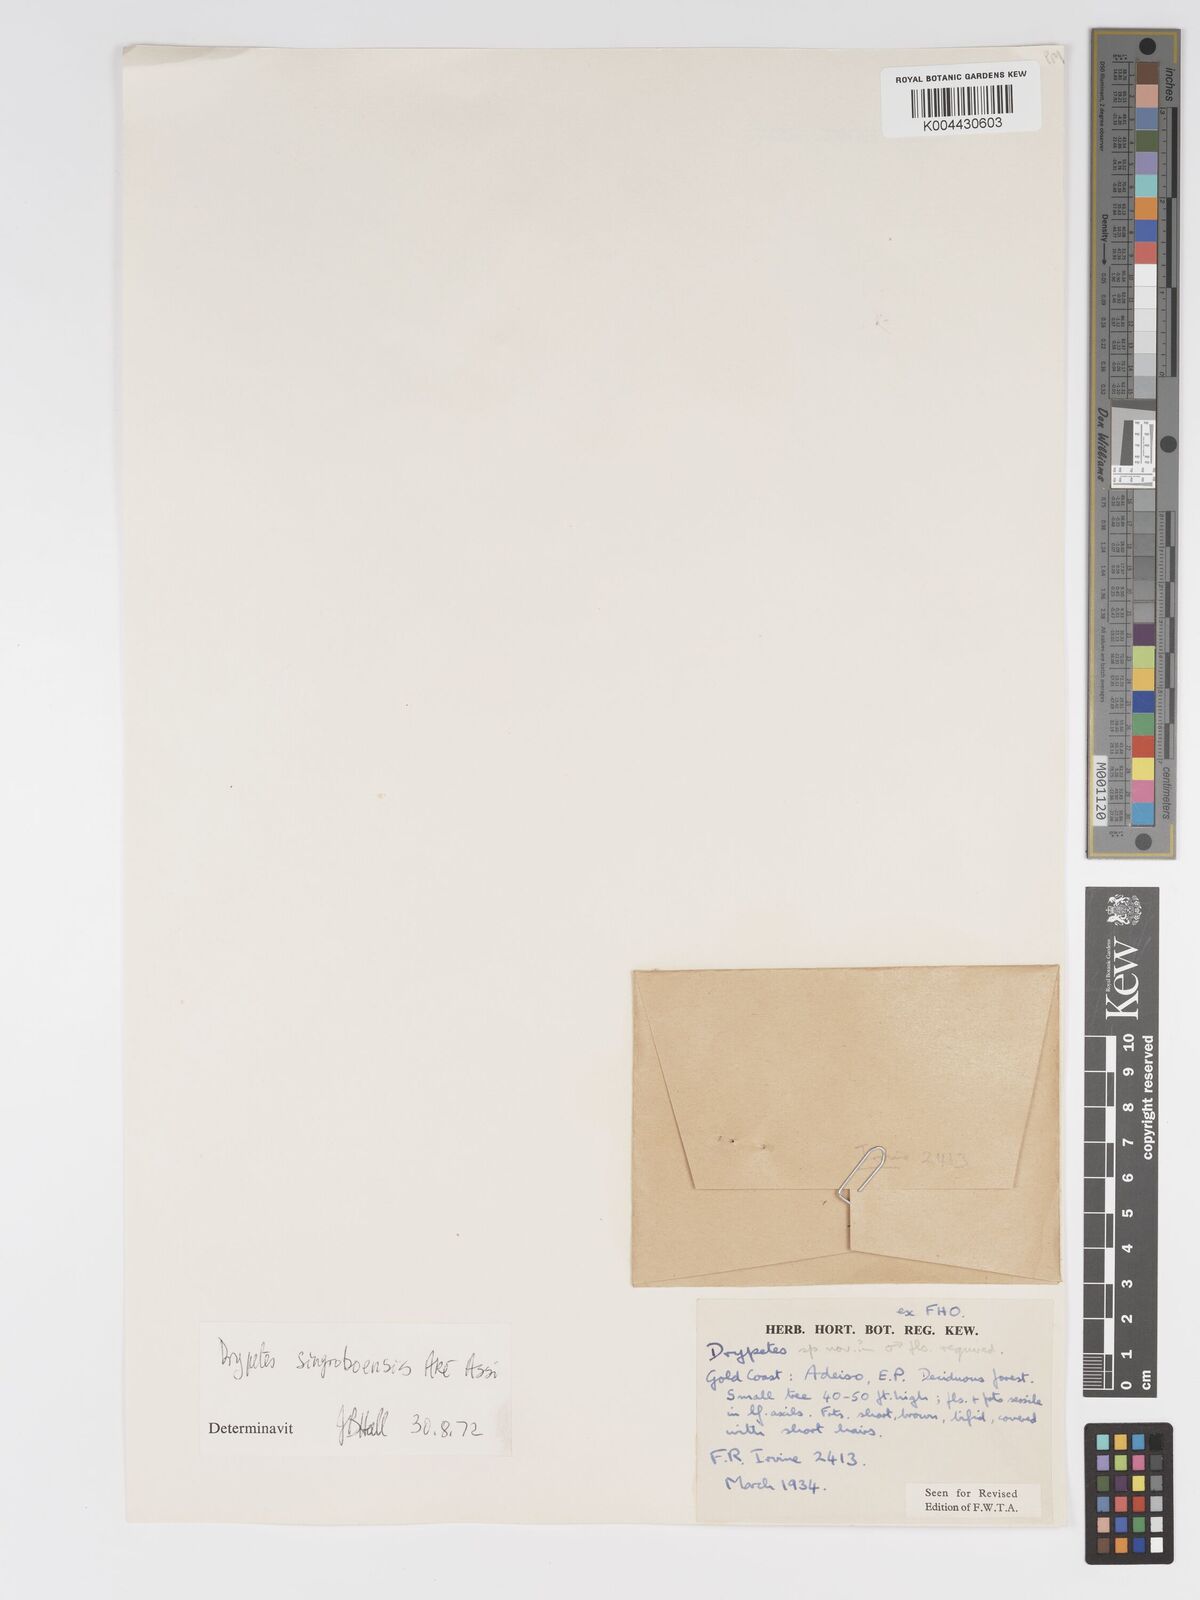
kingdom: Plantae
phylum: Tracheophyta
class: Magnoliopsida
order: Malpighiales
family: Putranjivaceae
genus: Drypetes
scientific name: Drypetes singroboensis
